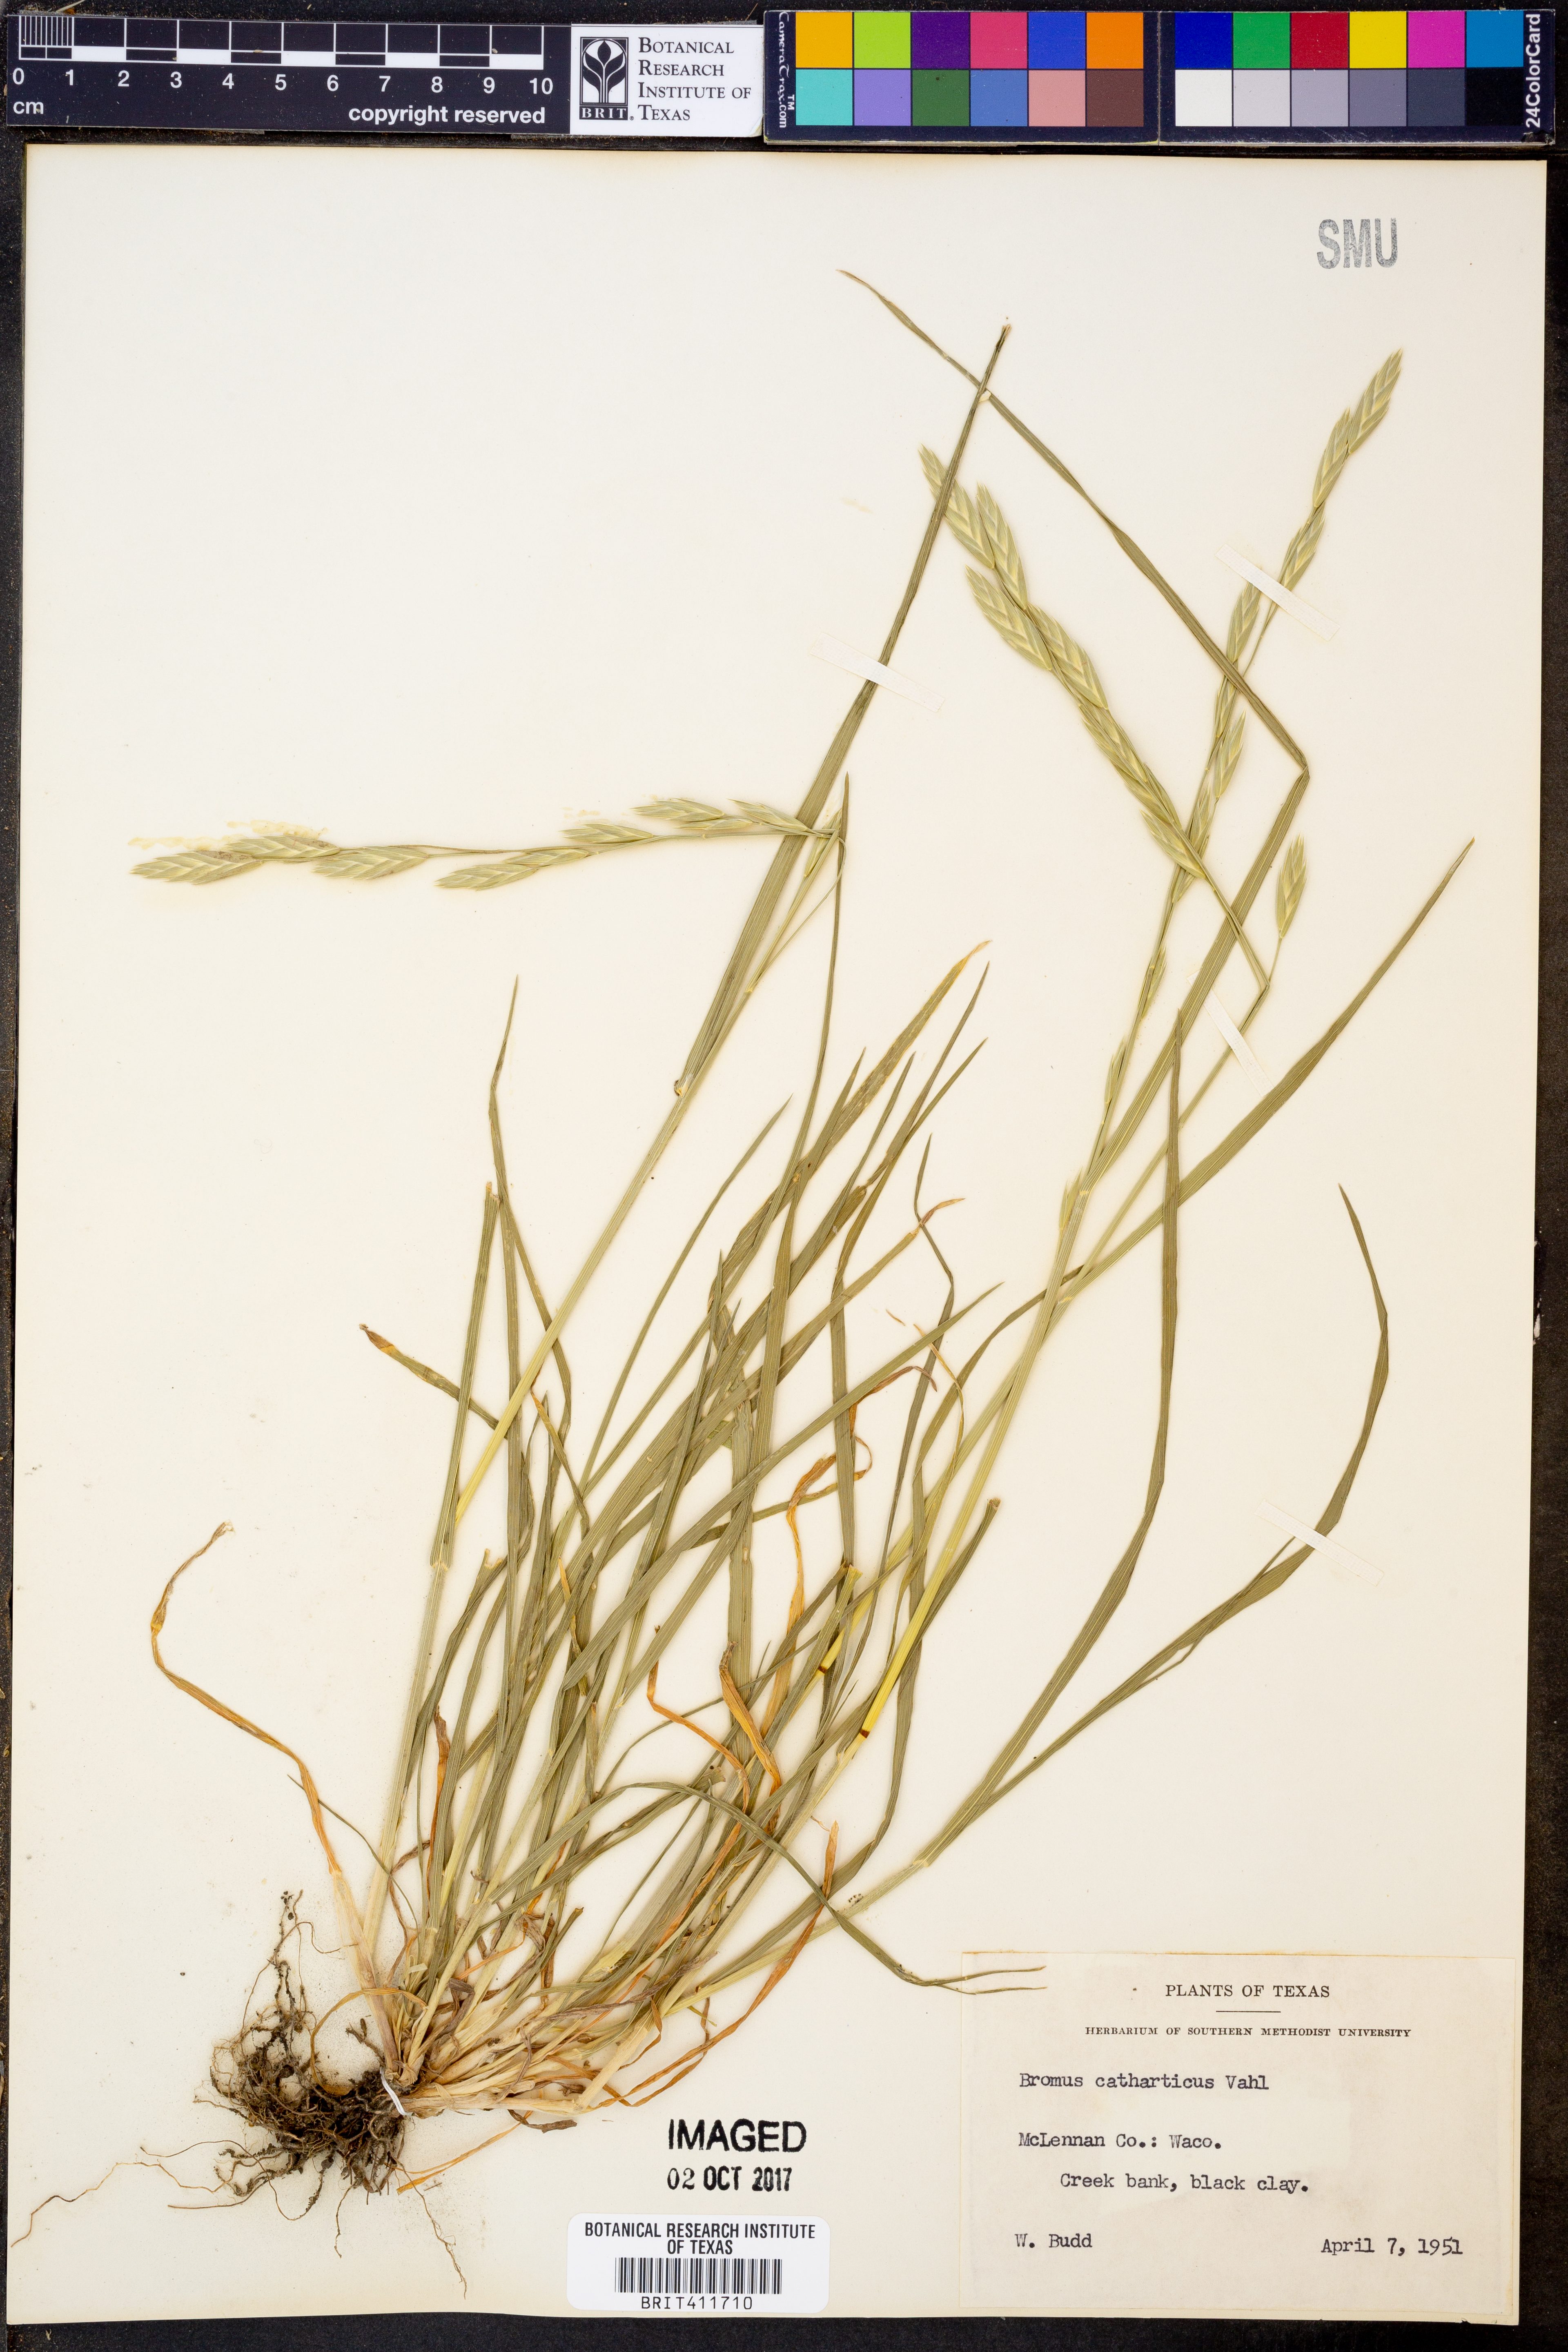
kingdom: Plantae
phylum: Tracheophyta
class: Liliopsida
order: Poales
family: Poaceae
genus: Bromus
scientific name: Bromus catharticus
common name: Rescuegrass
